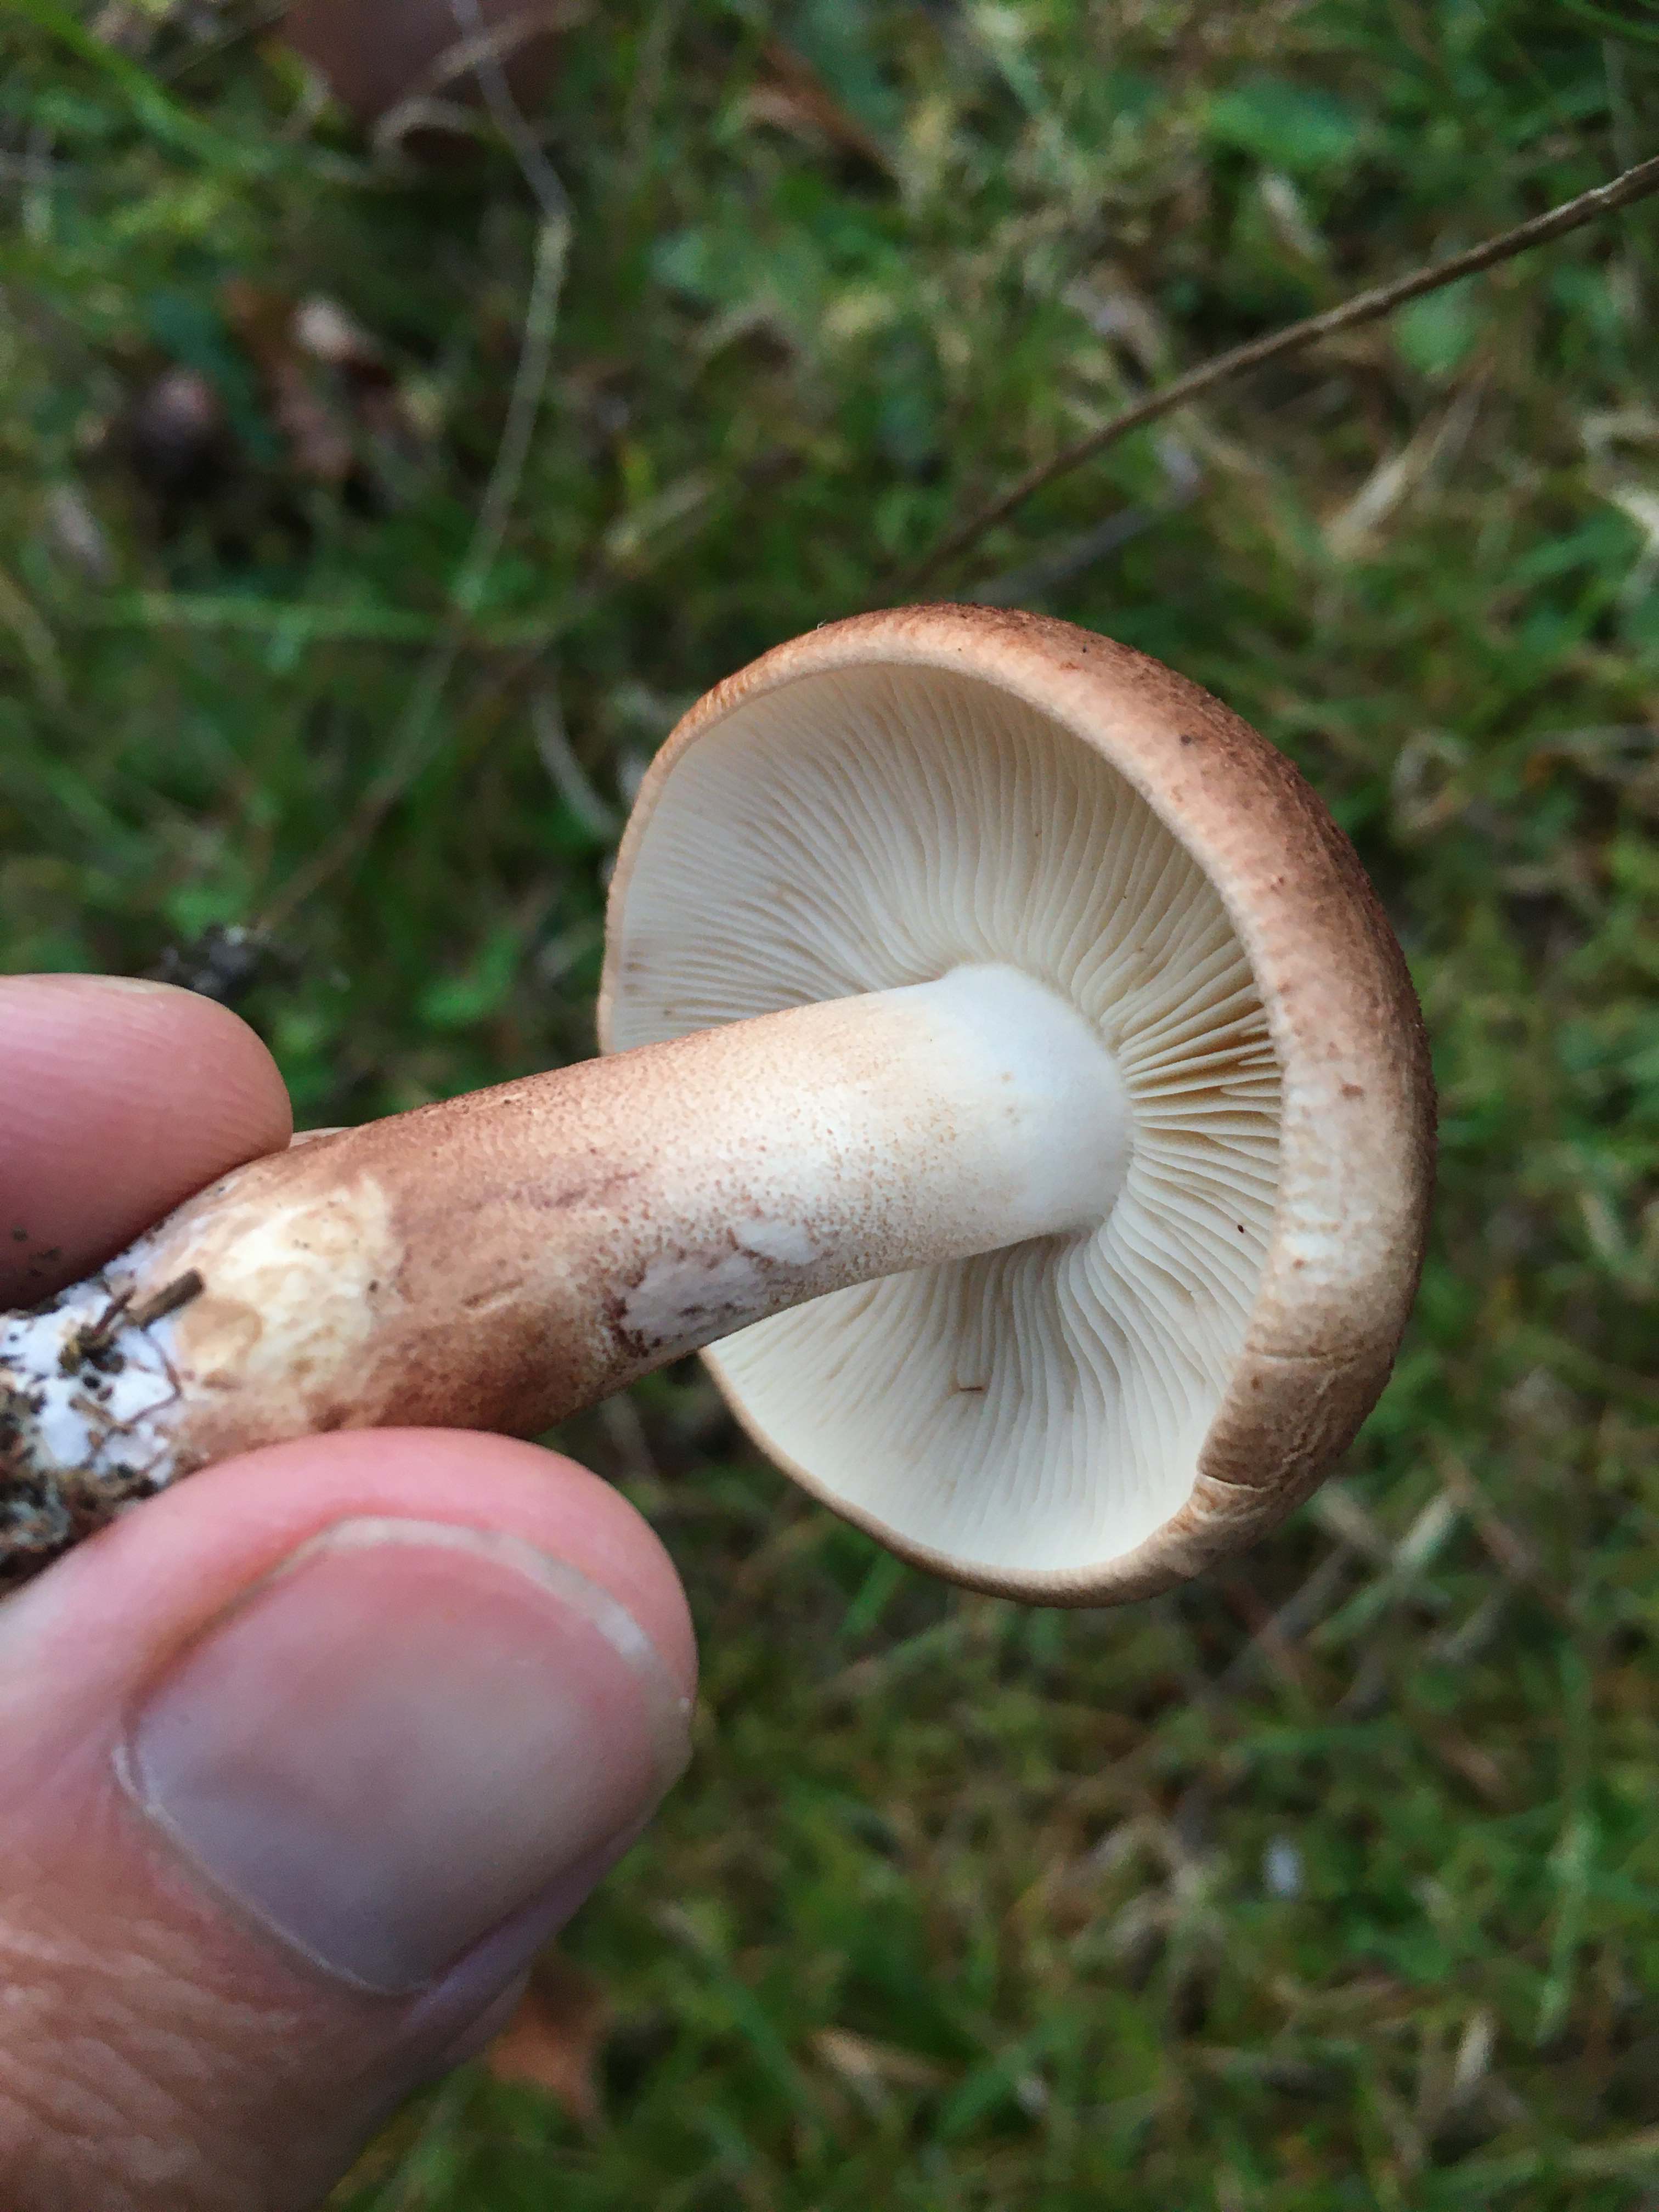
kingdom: Fungi
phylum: Basidiomycota
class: Agaricomycetes
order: Agaricales
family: Tricholomataceae
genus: Tricholoma
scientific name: Tricholoma imbricatum
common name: skællet ridderhat
